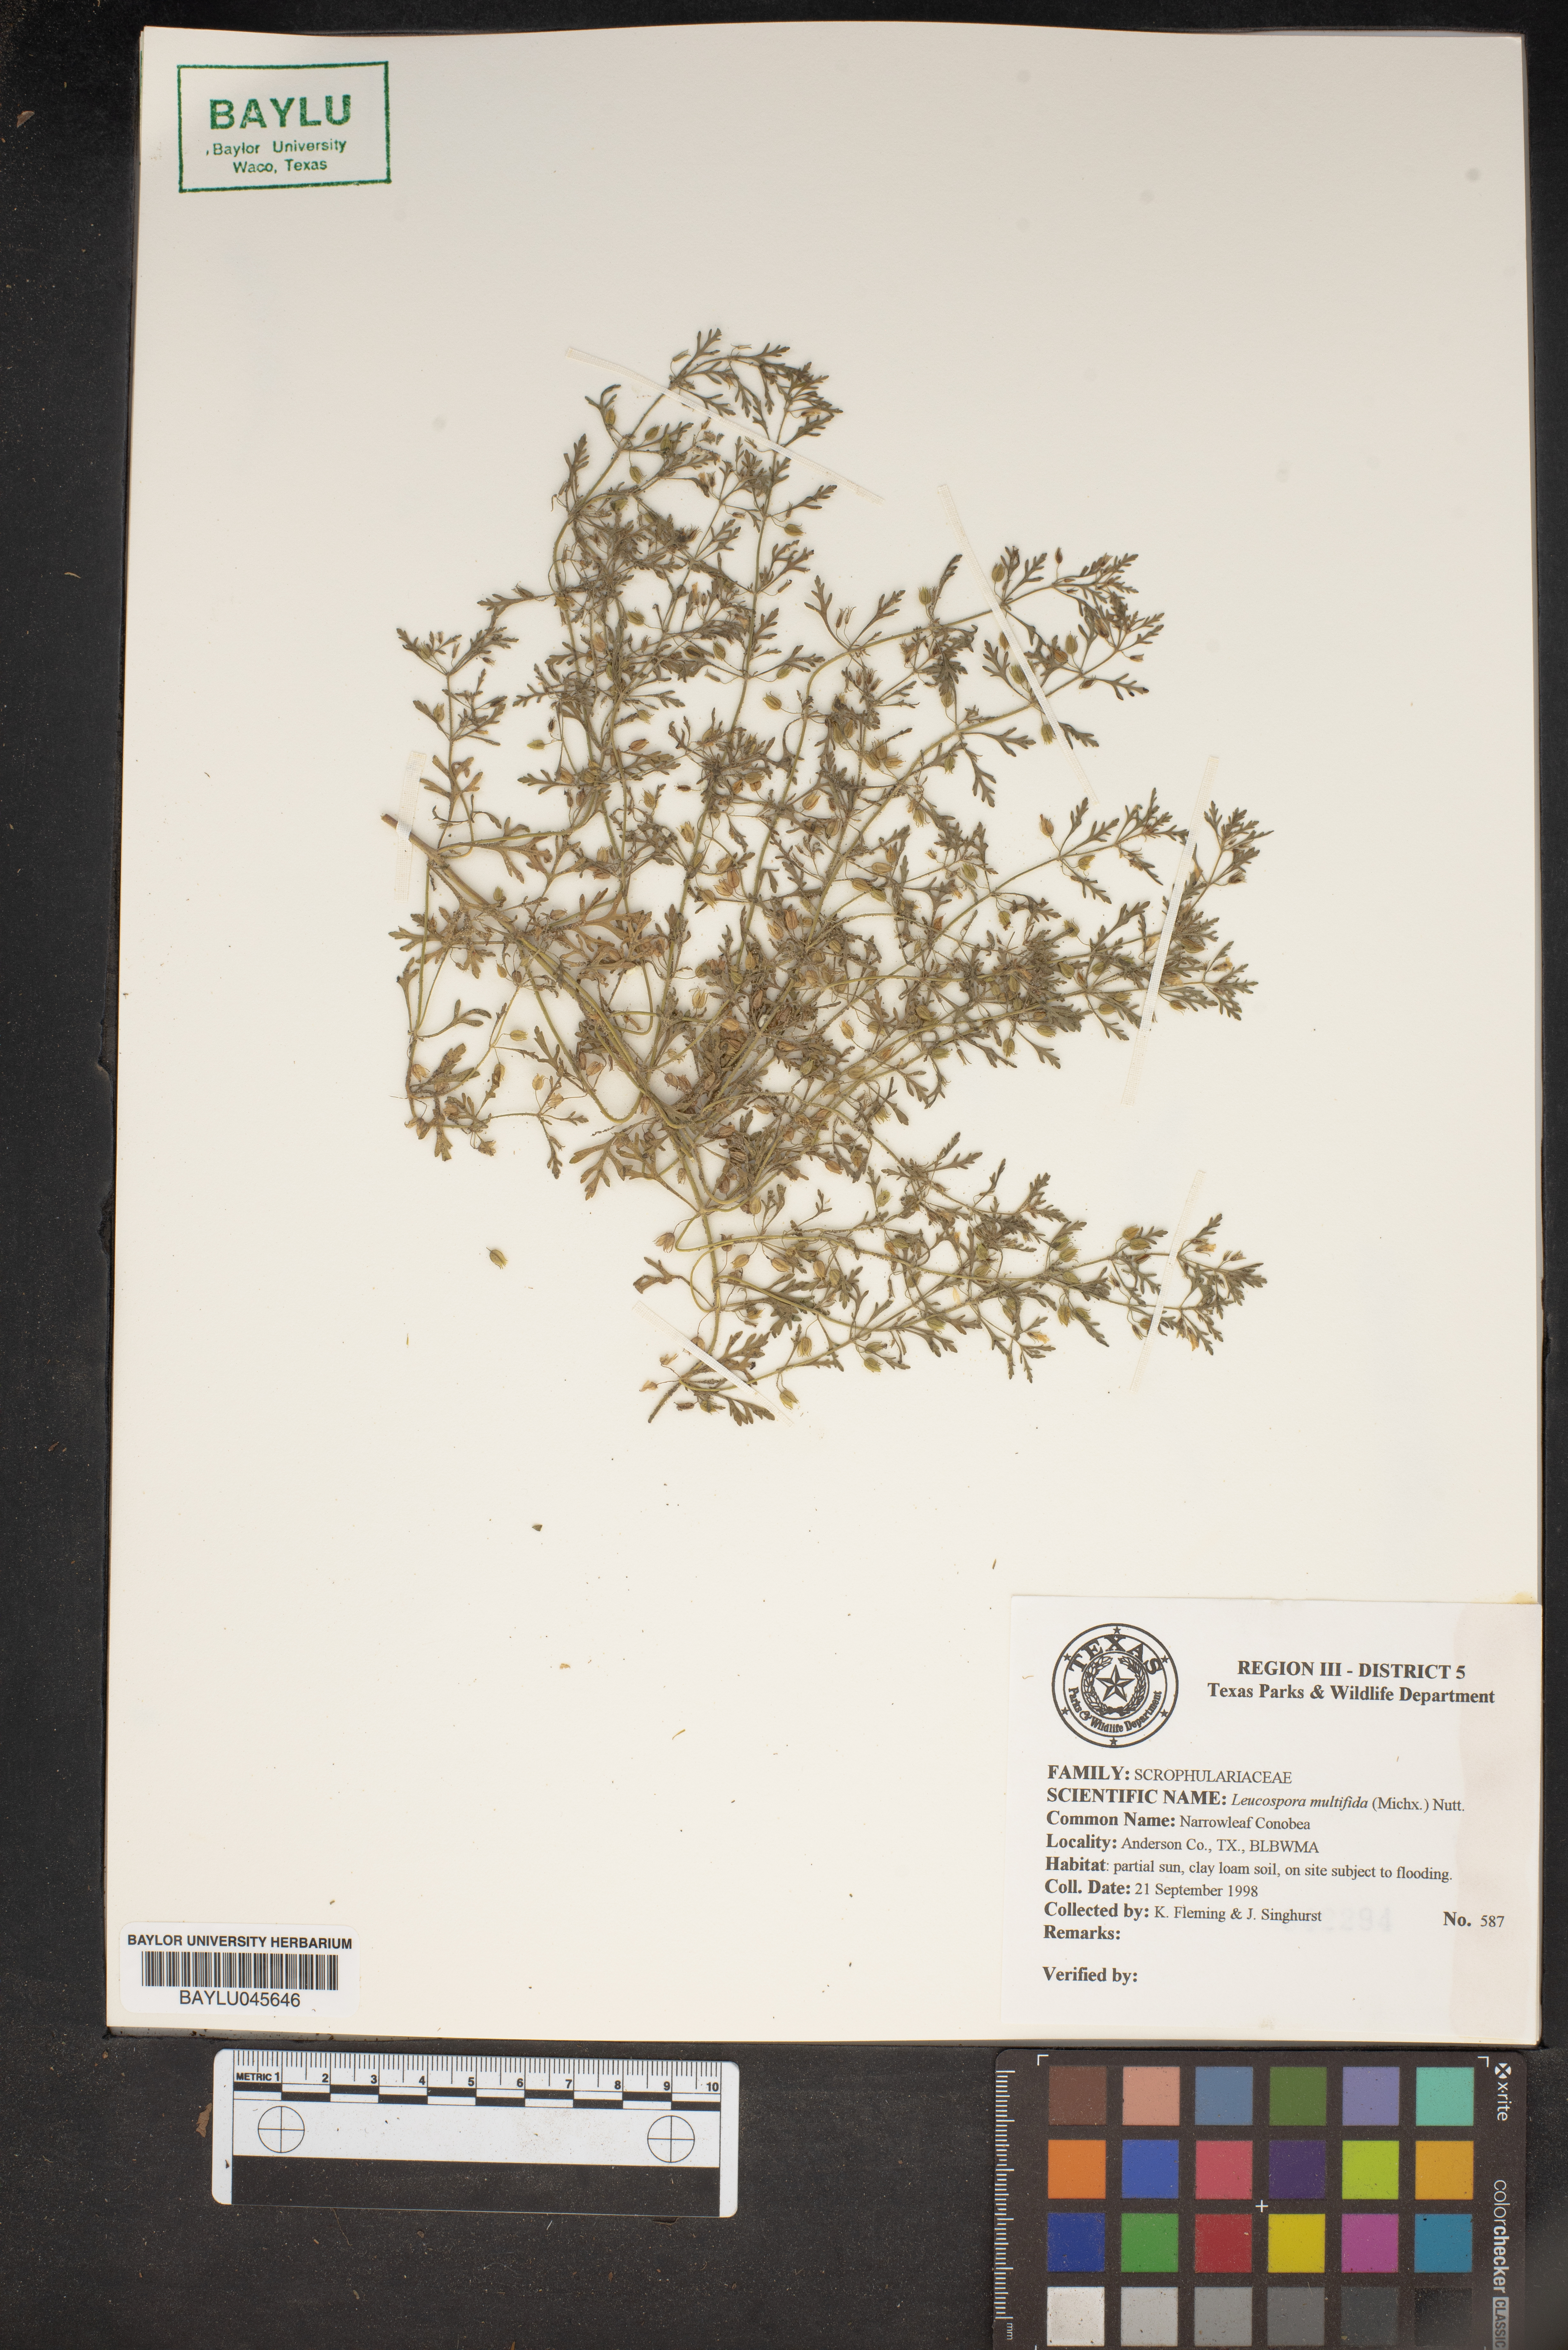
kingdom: Plantae
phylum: Tracheophyta
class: Magnoliopsida
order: Lamiales
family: Plantaginaceae
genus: Leucospora
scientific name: Leucospora multifida
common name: Narrow-leaf paleseed
